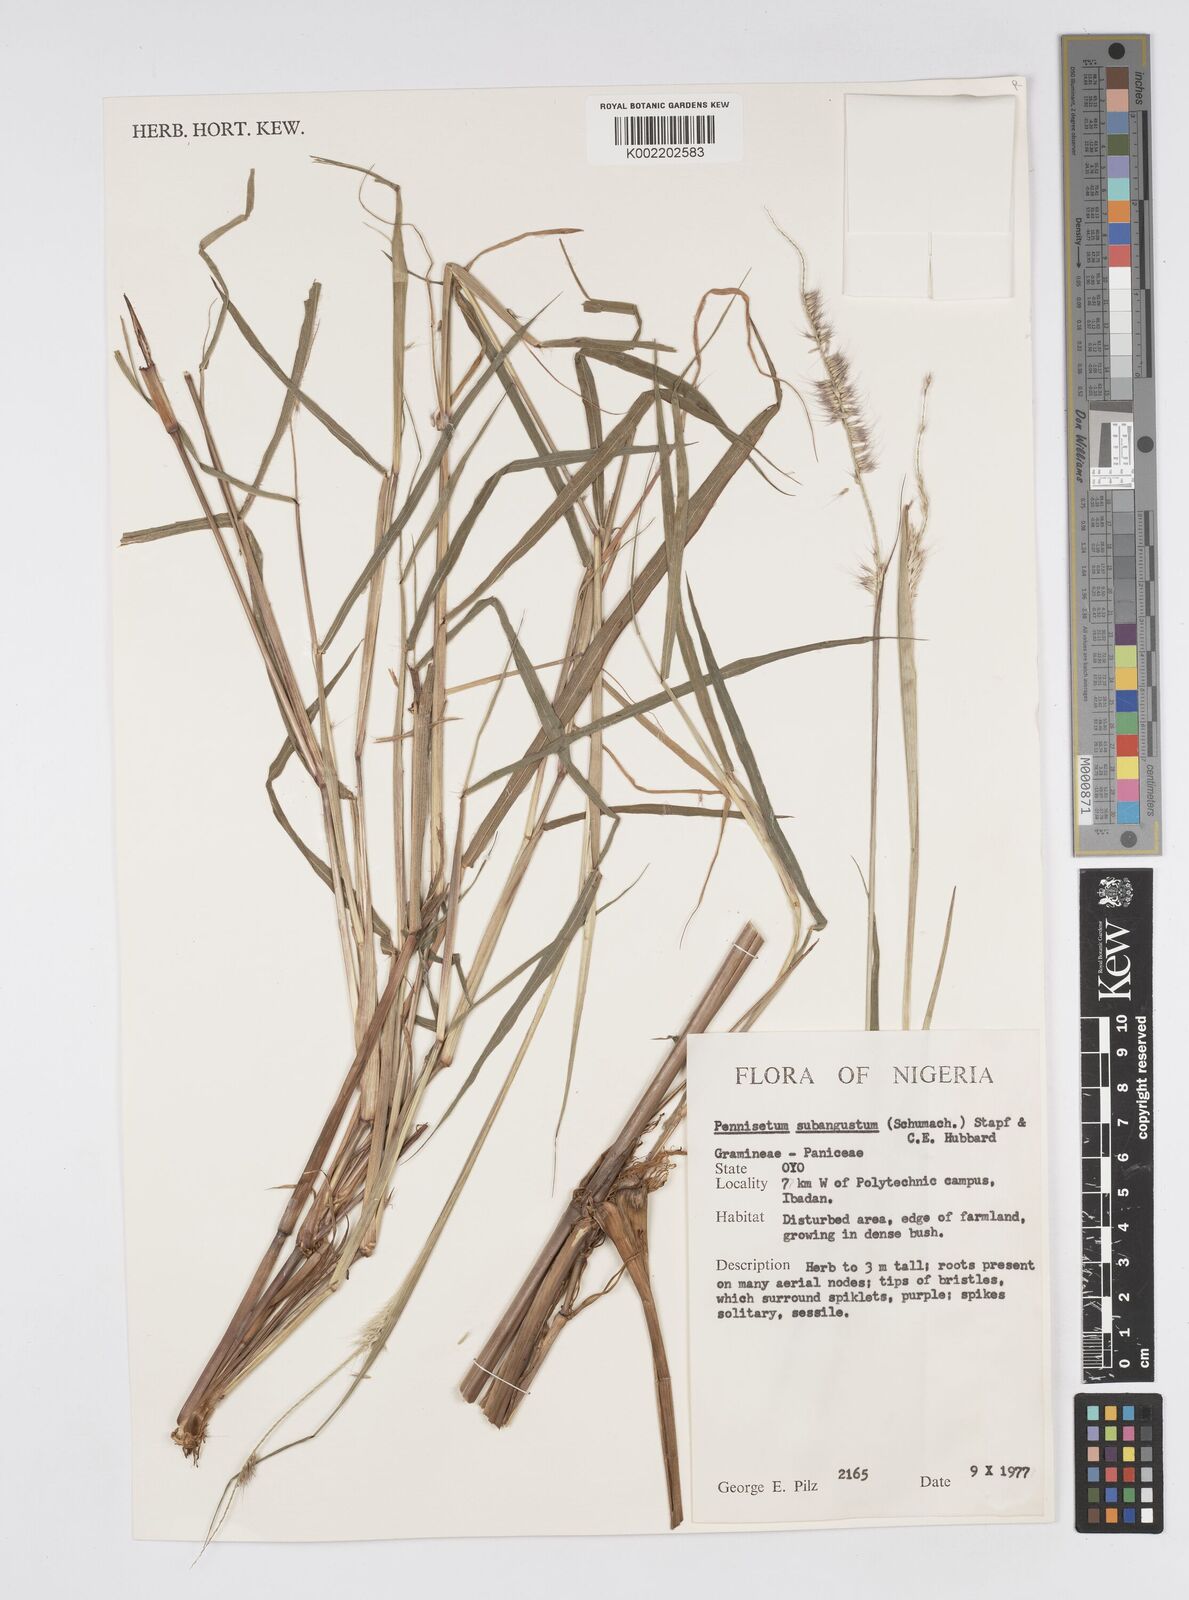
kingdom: Plantae
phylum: Tracheophyta
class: Liliopsida
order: Poales
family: Poaceae
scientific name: Poaceae
